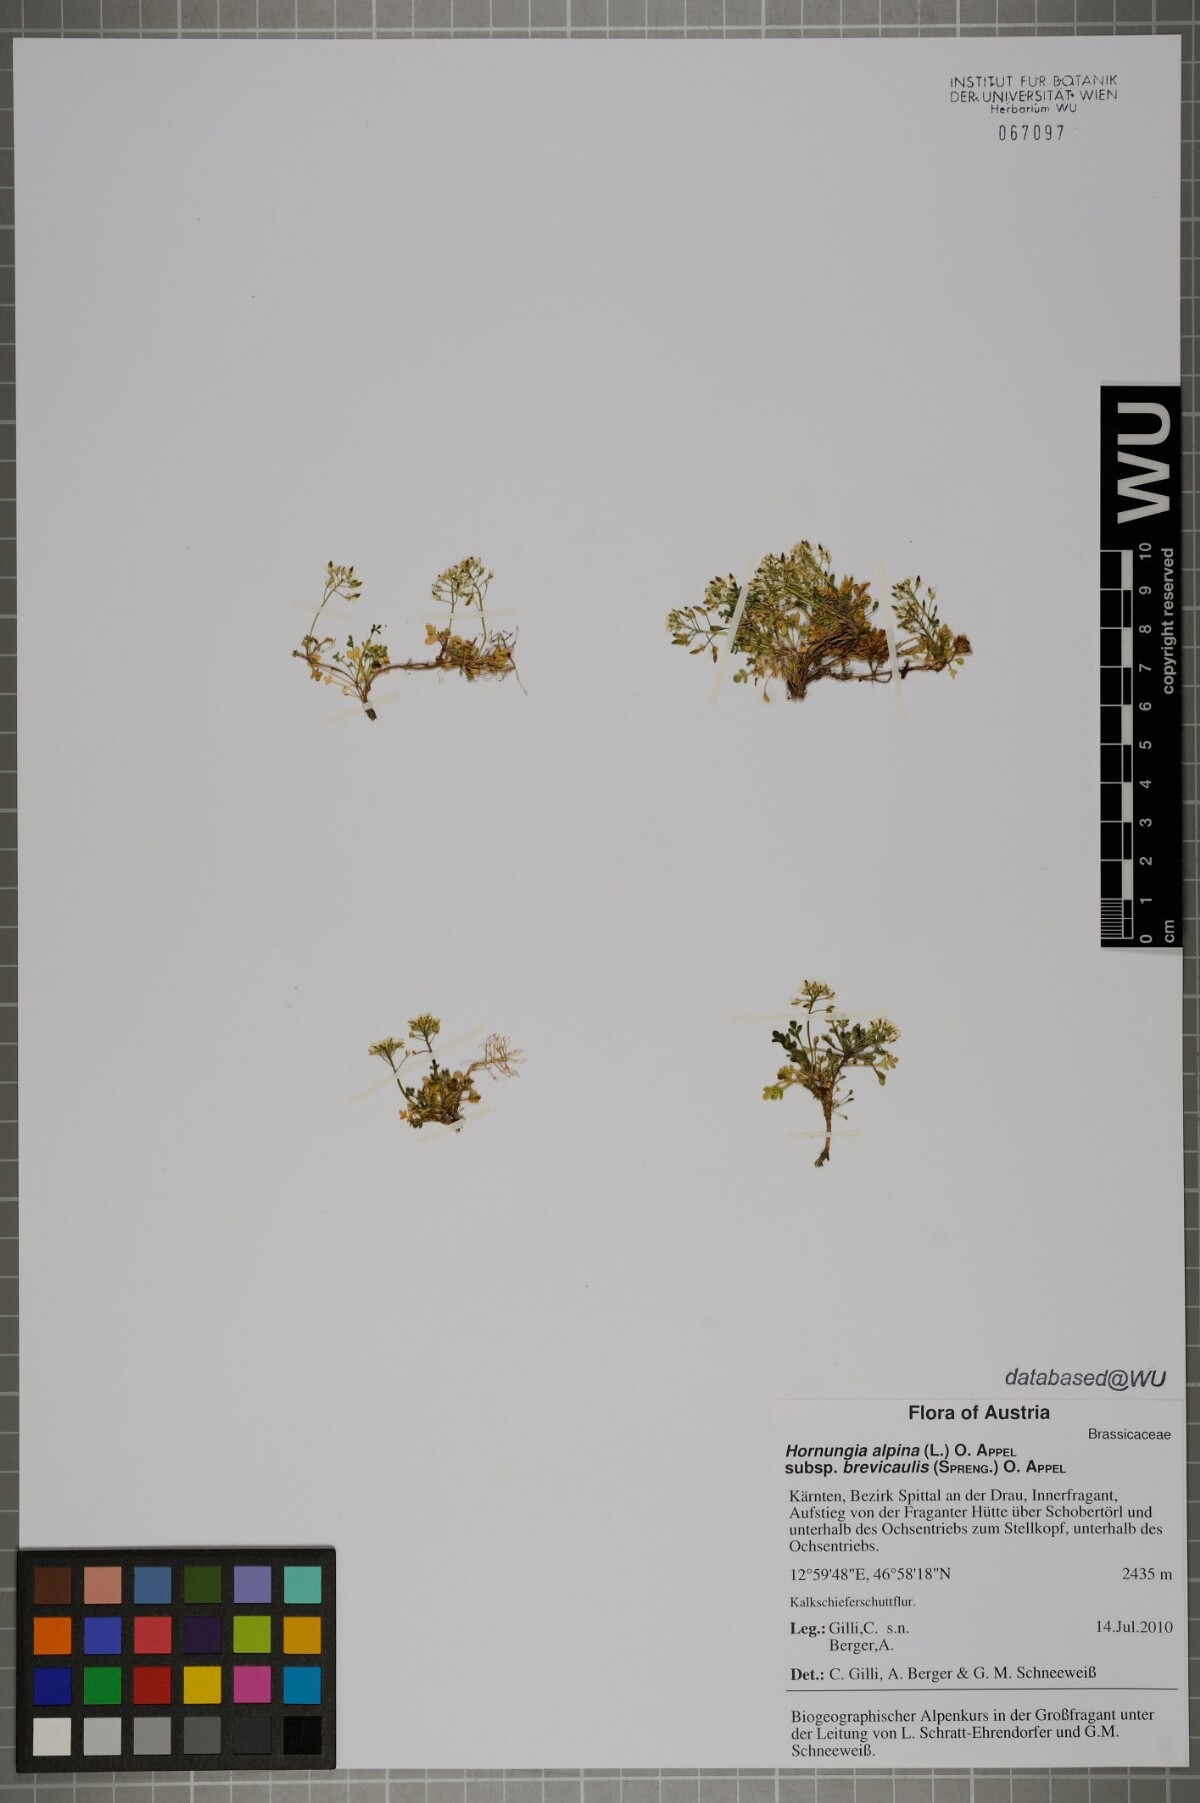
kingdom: Plantae
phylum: Tracheophyta
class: Magnoliopsida
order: Brassicales
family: Brassicaceae
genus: Hornungia
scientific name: Hornungia alpina
